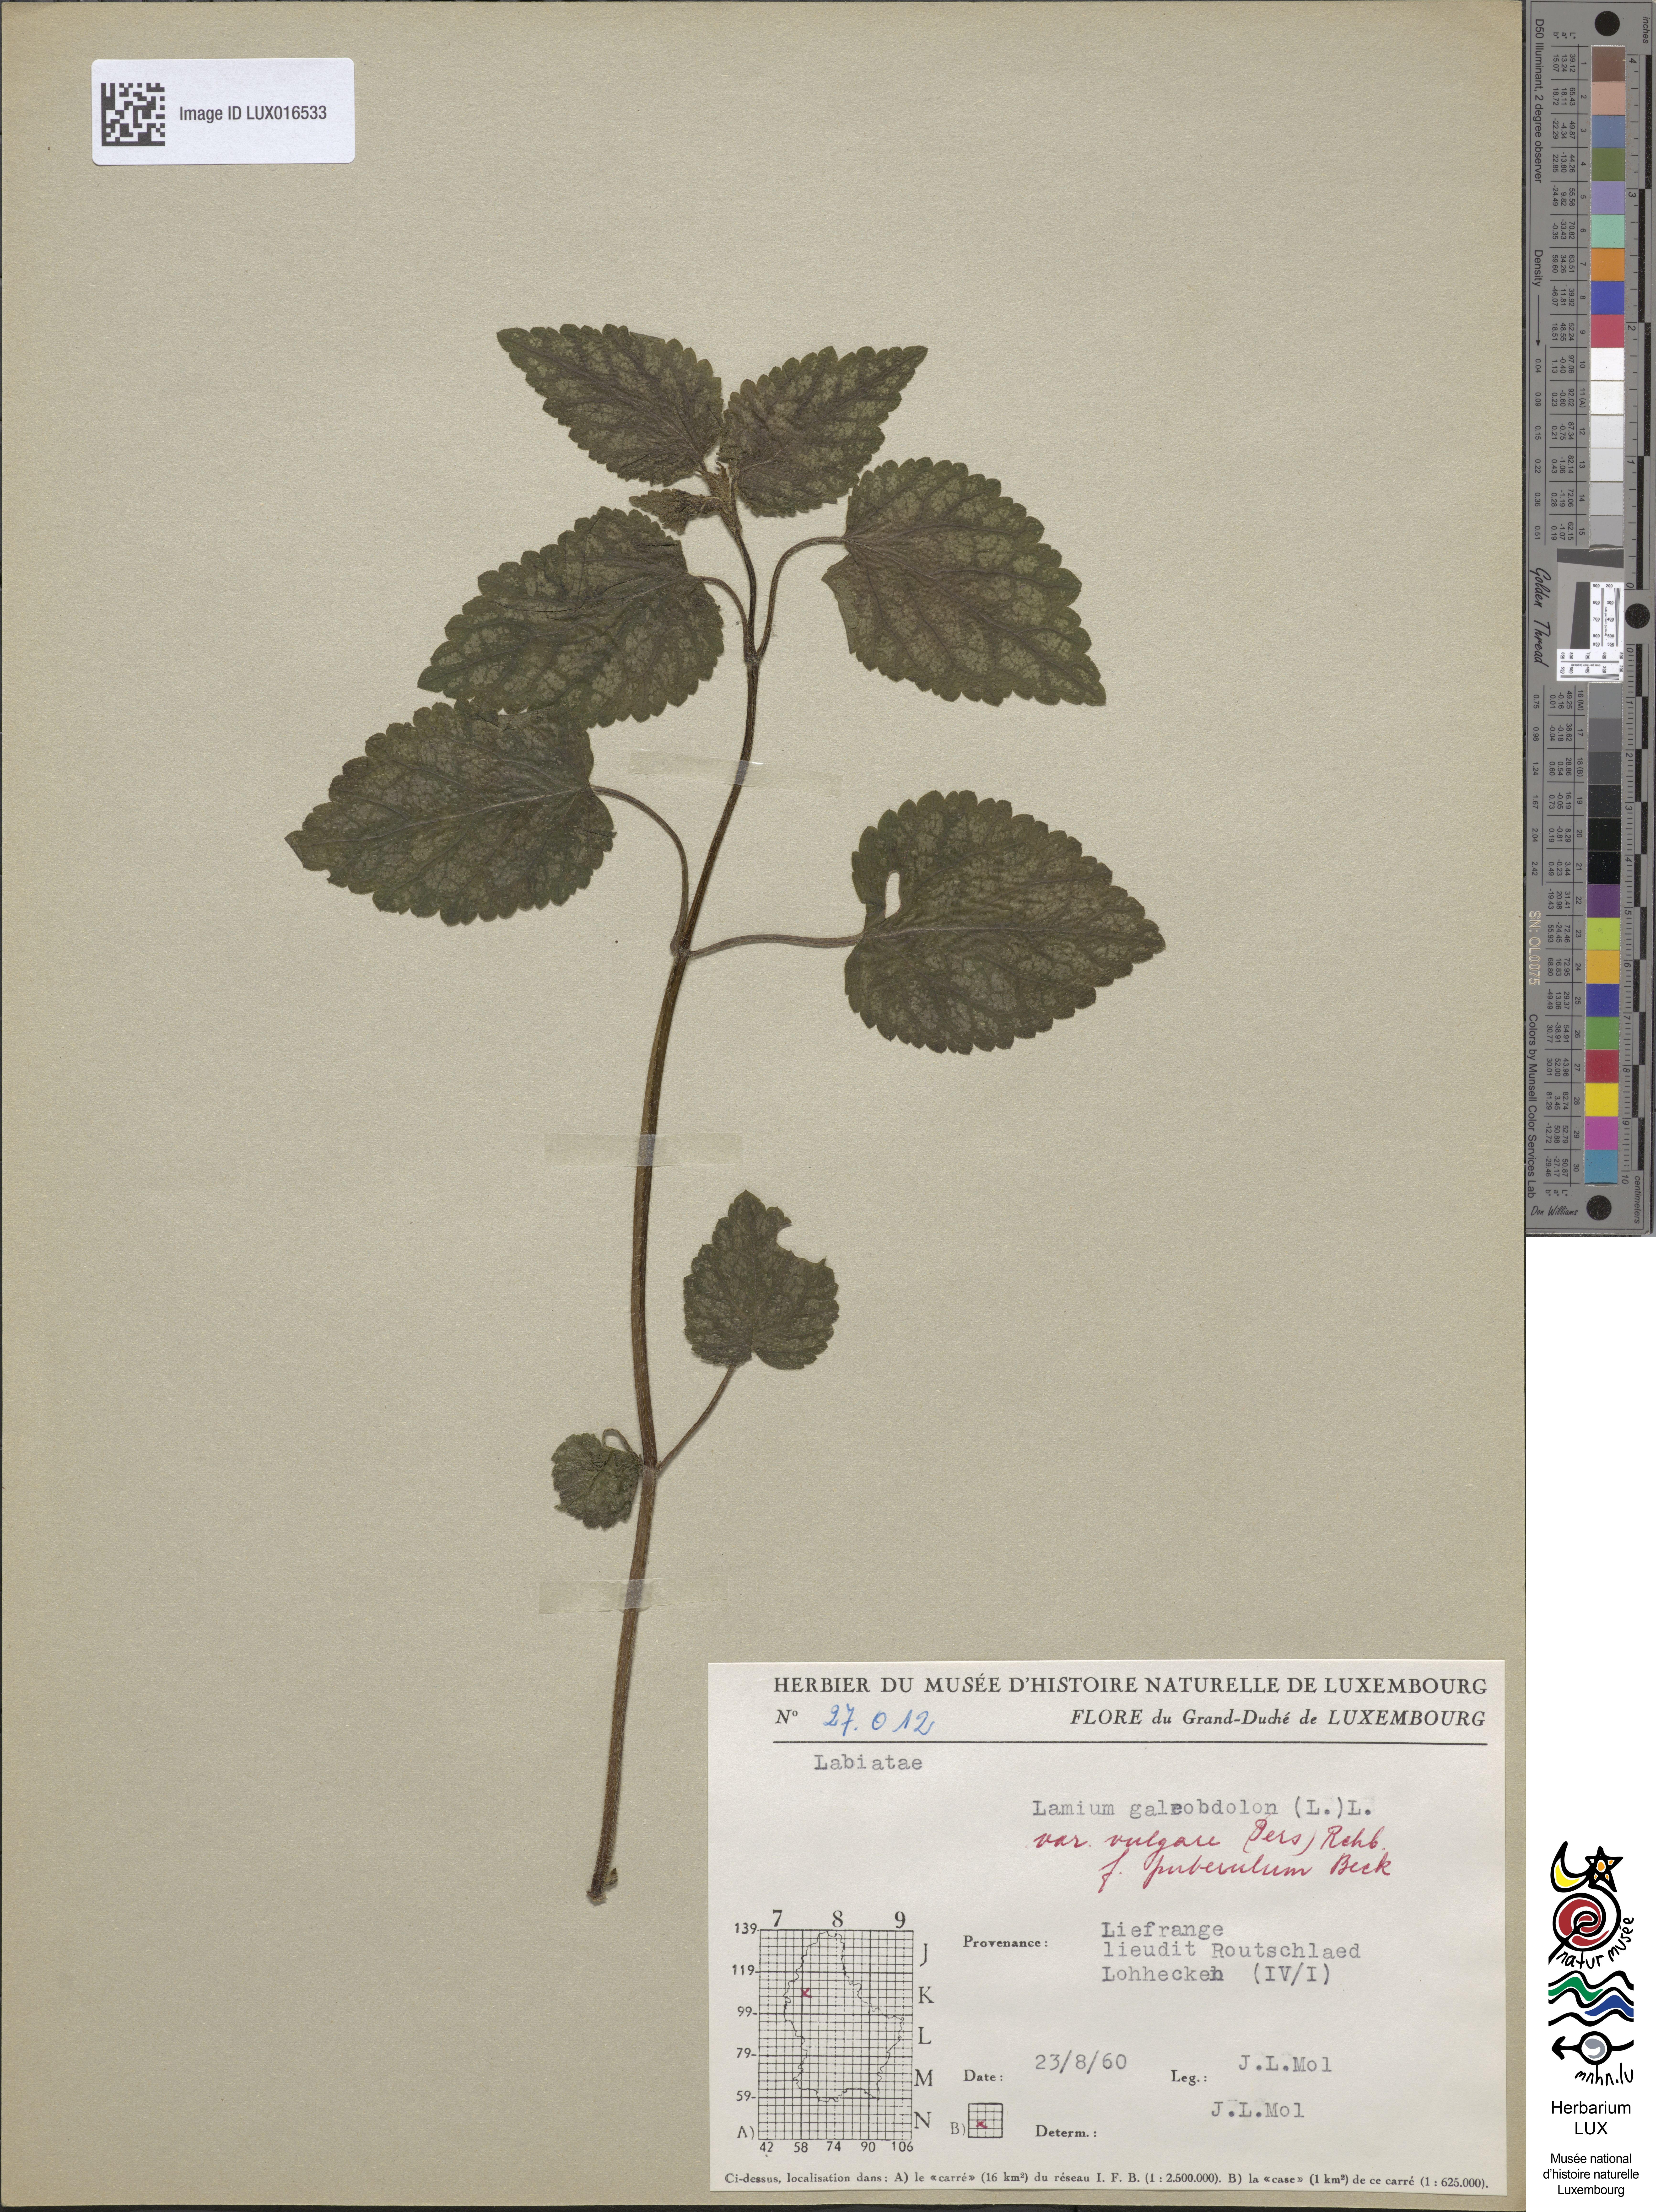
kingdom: Plantae
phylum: Tracheophyta
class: Magnoliopsida
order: Lamiales
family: Lamiaceae
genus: Lamium
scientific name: Lamium galeobdolon
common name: Yellow archangel
